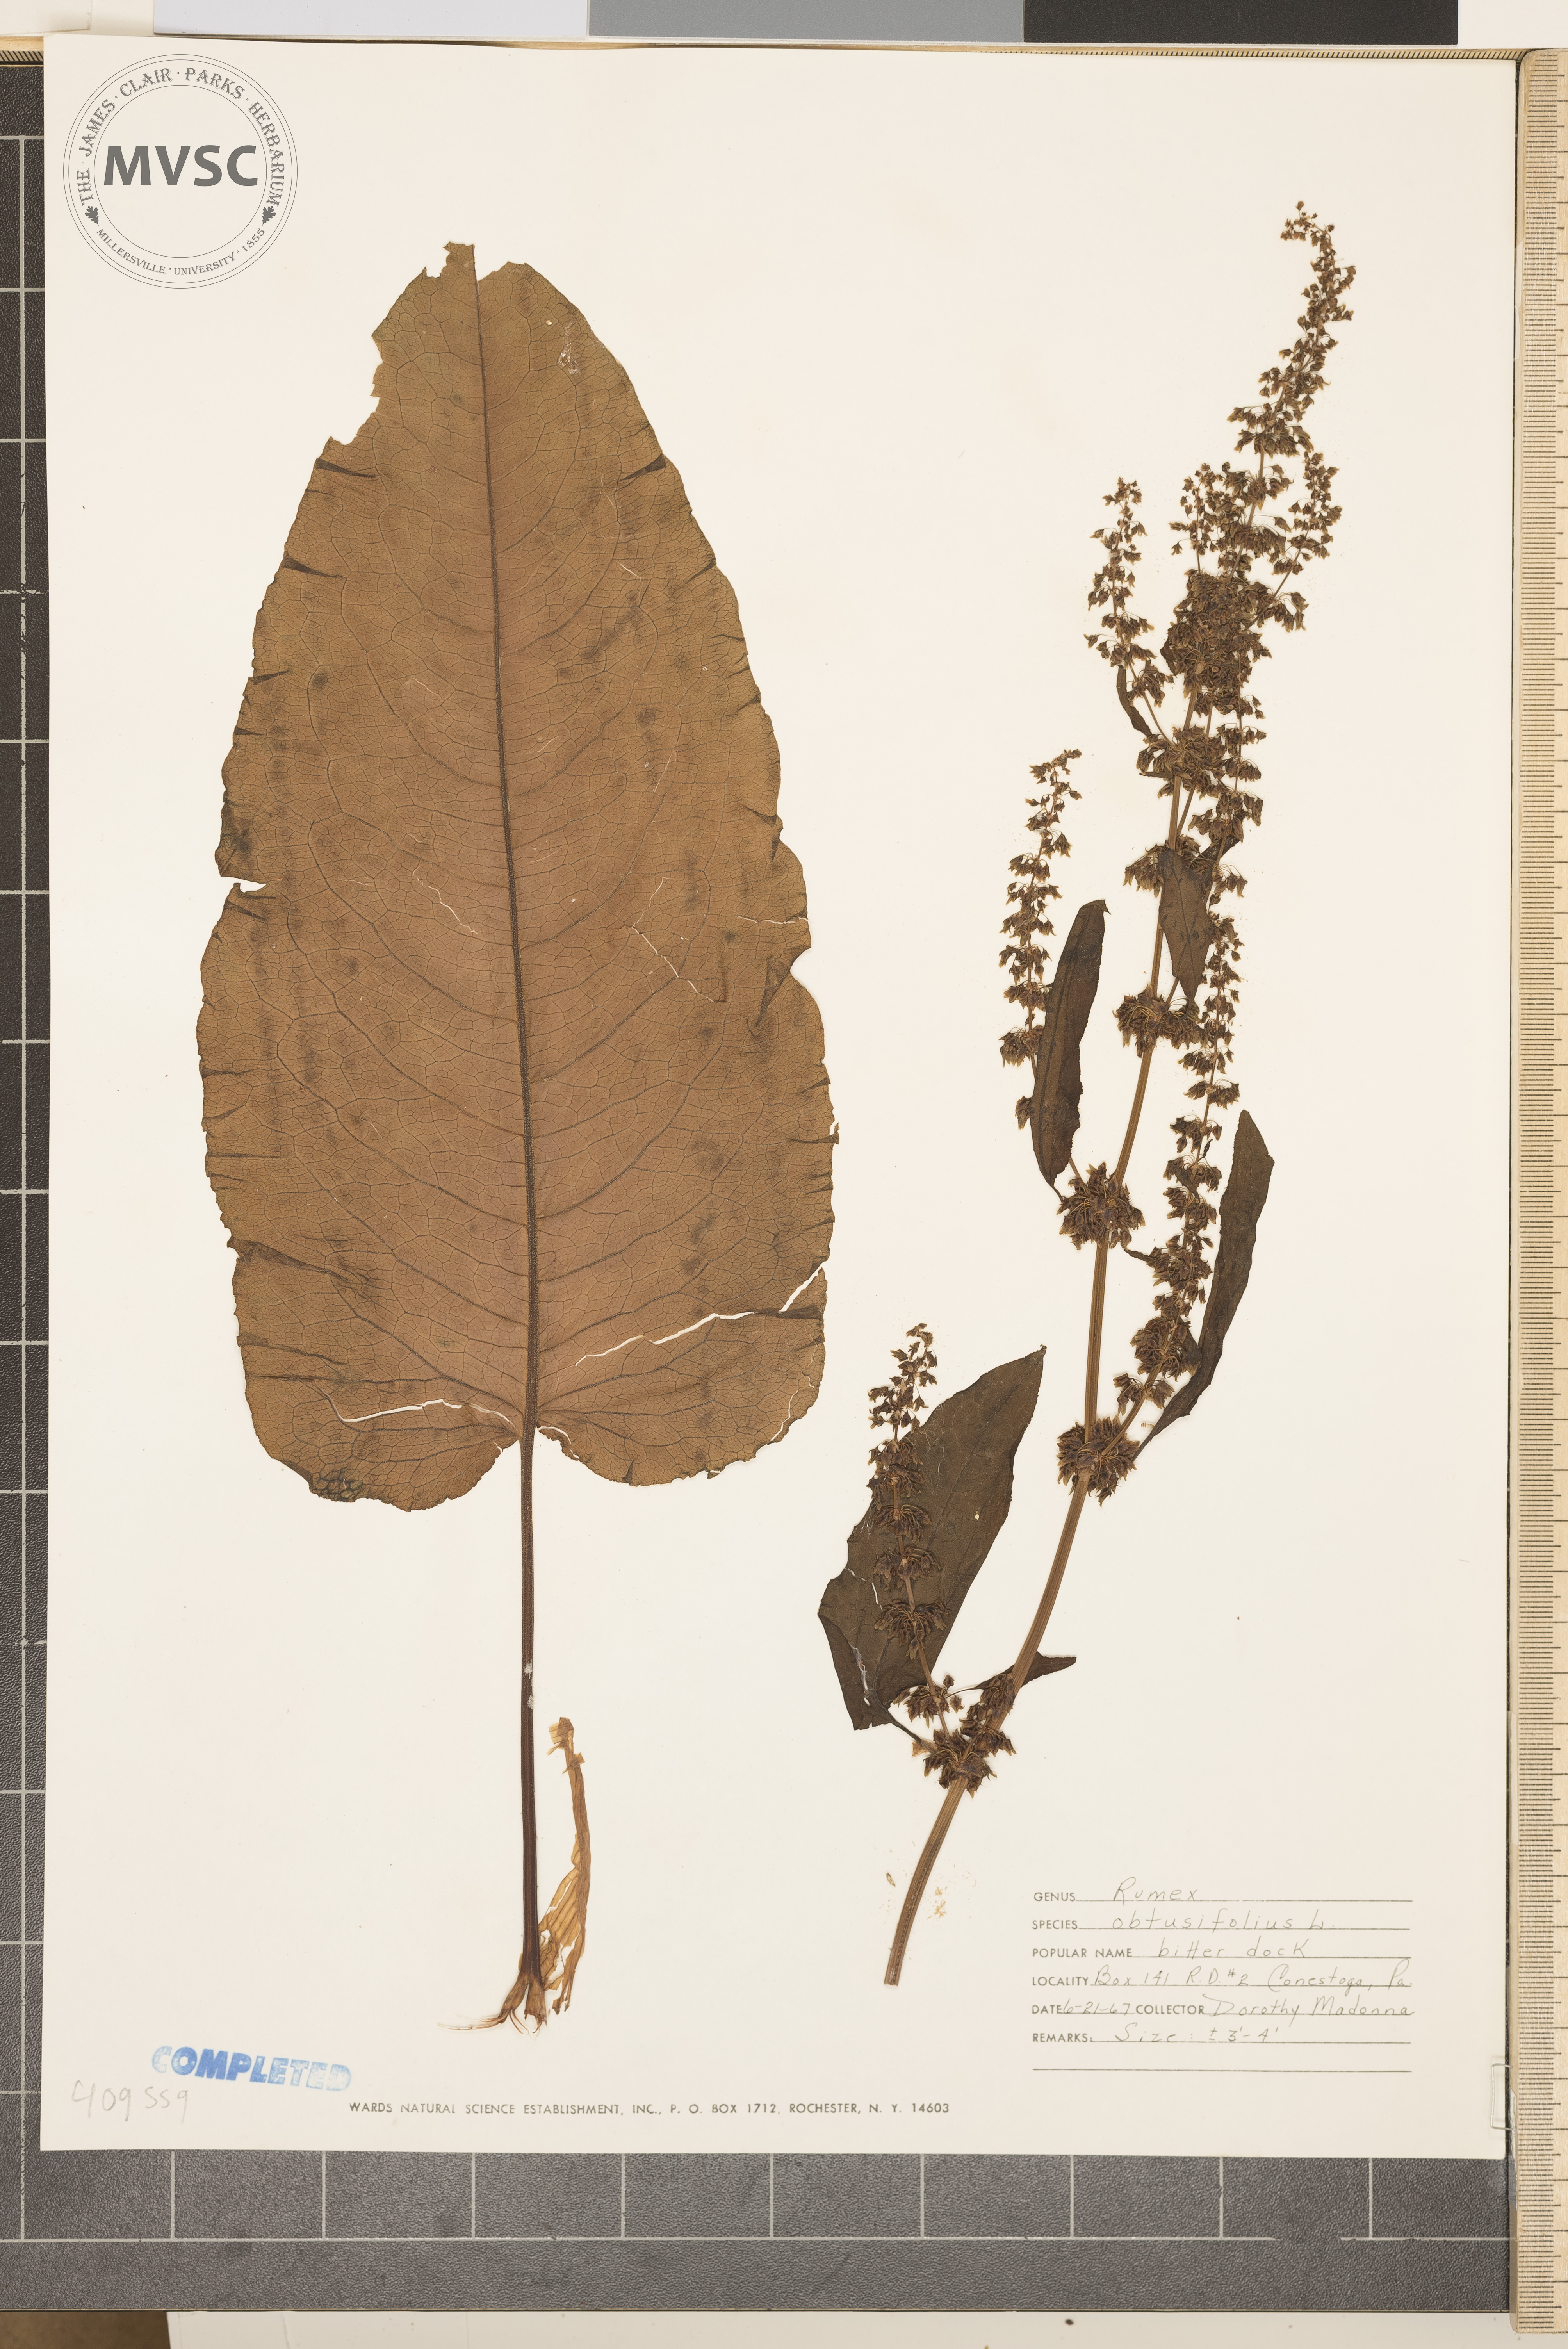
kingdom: Plantae
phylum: Tracheophyta
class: Magnoliopsida
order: Caryophyllales
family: Polygonaceae
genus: Rumex
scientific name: Rumex obtusifolius
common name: Bitter dock
